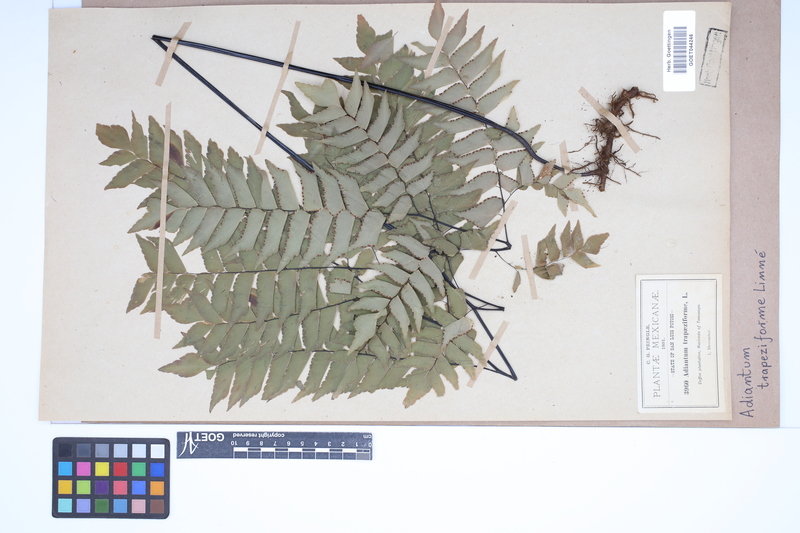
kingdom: Plantae
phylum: Tracheophyta
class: Polypodiopsida
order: Polypodiales
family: Pteridaceae
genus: Adiantum
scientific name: Adiantum trapeziforme
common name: Diamond maidenhair
